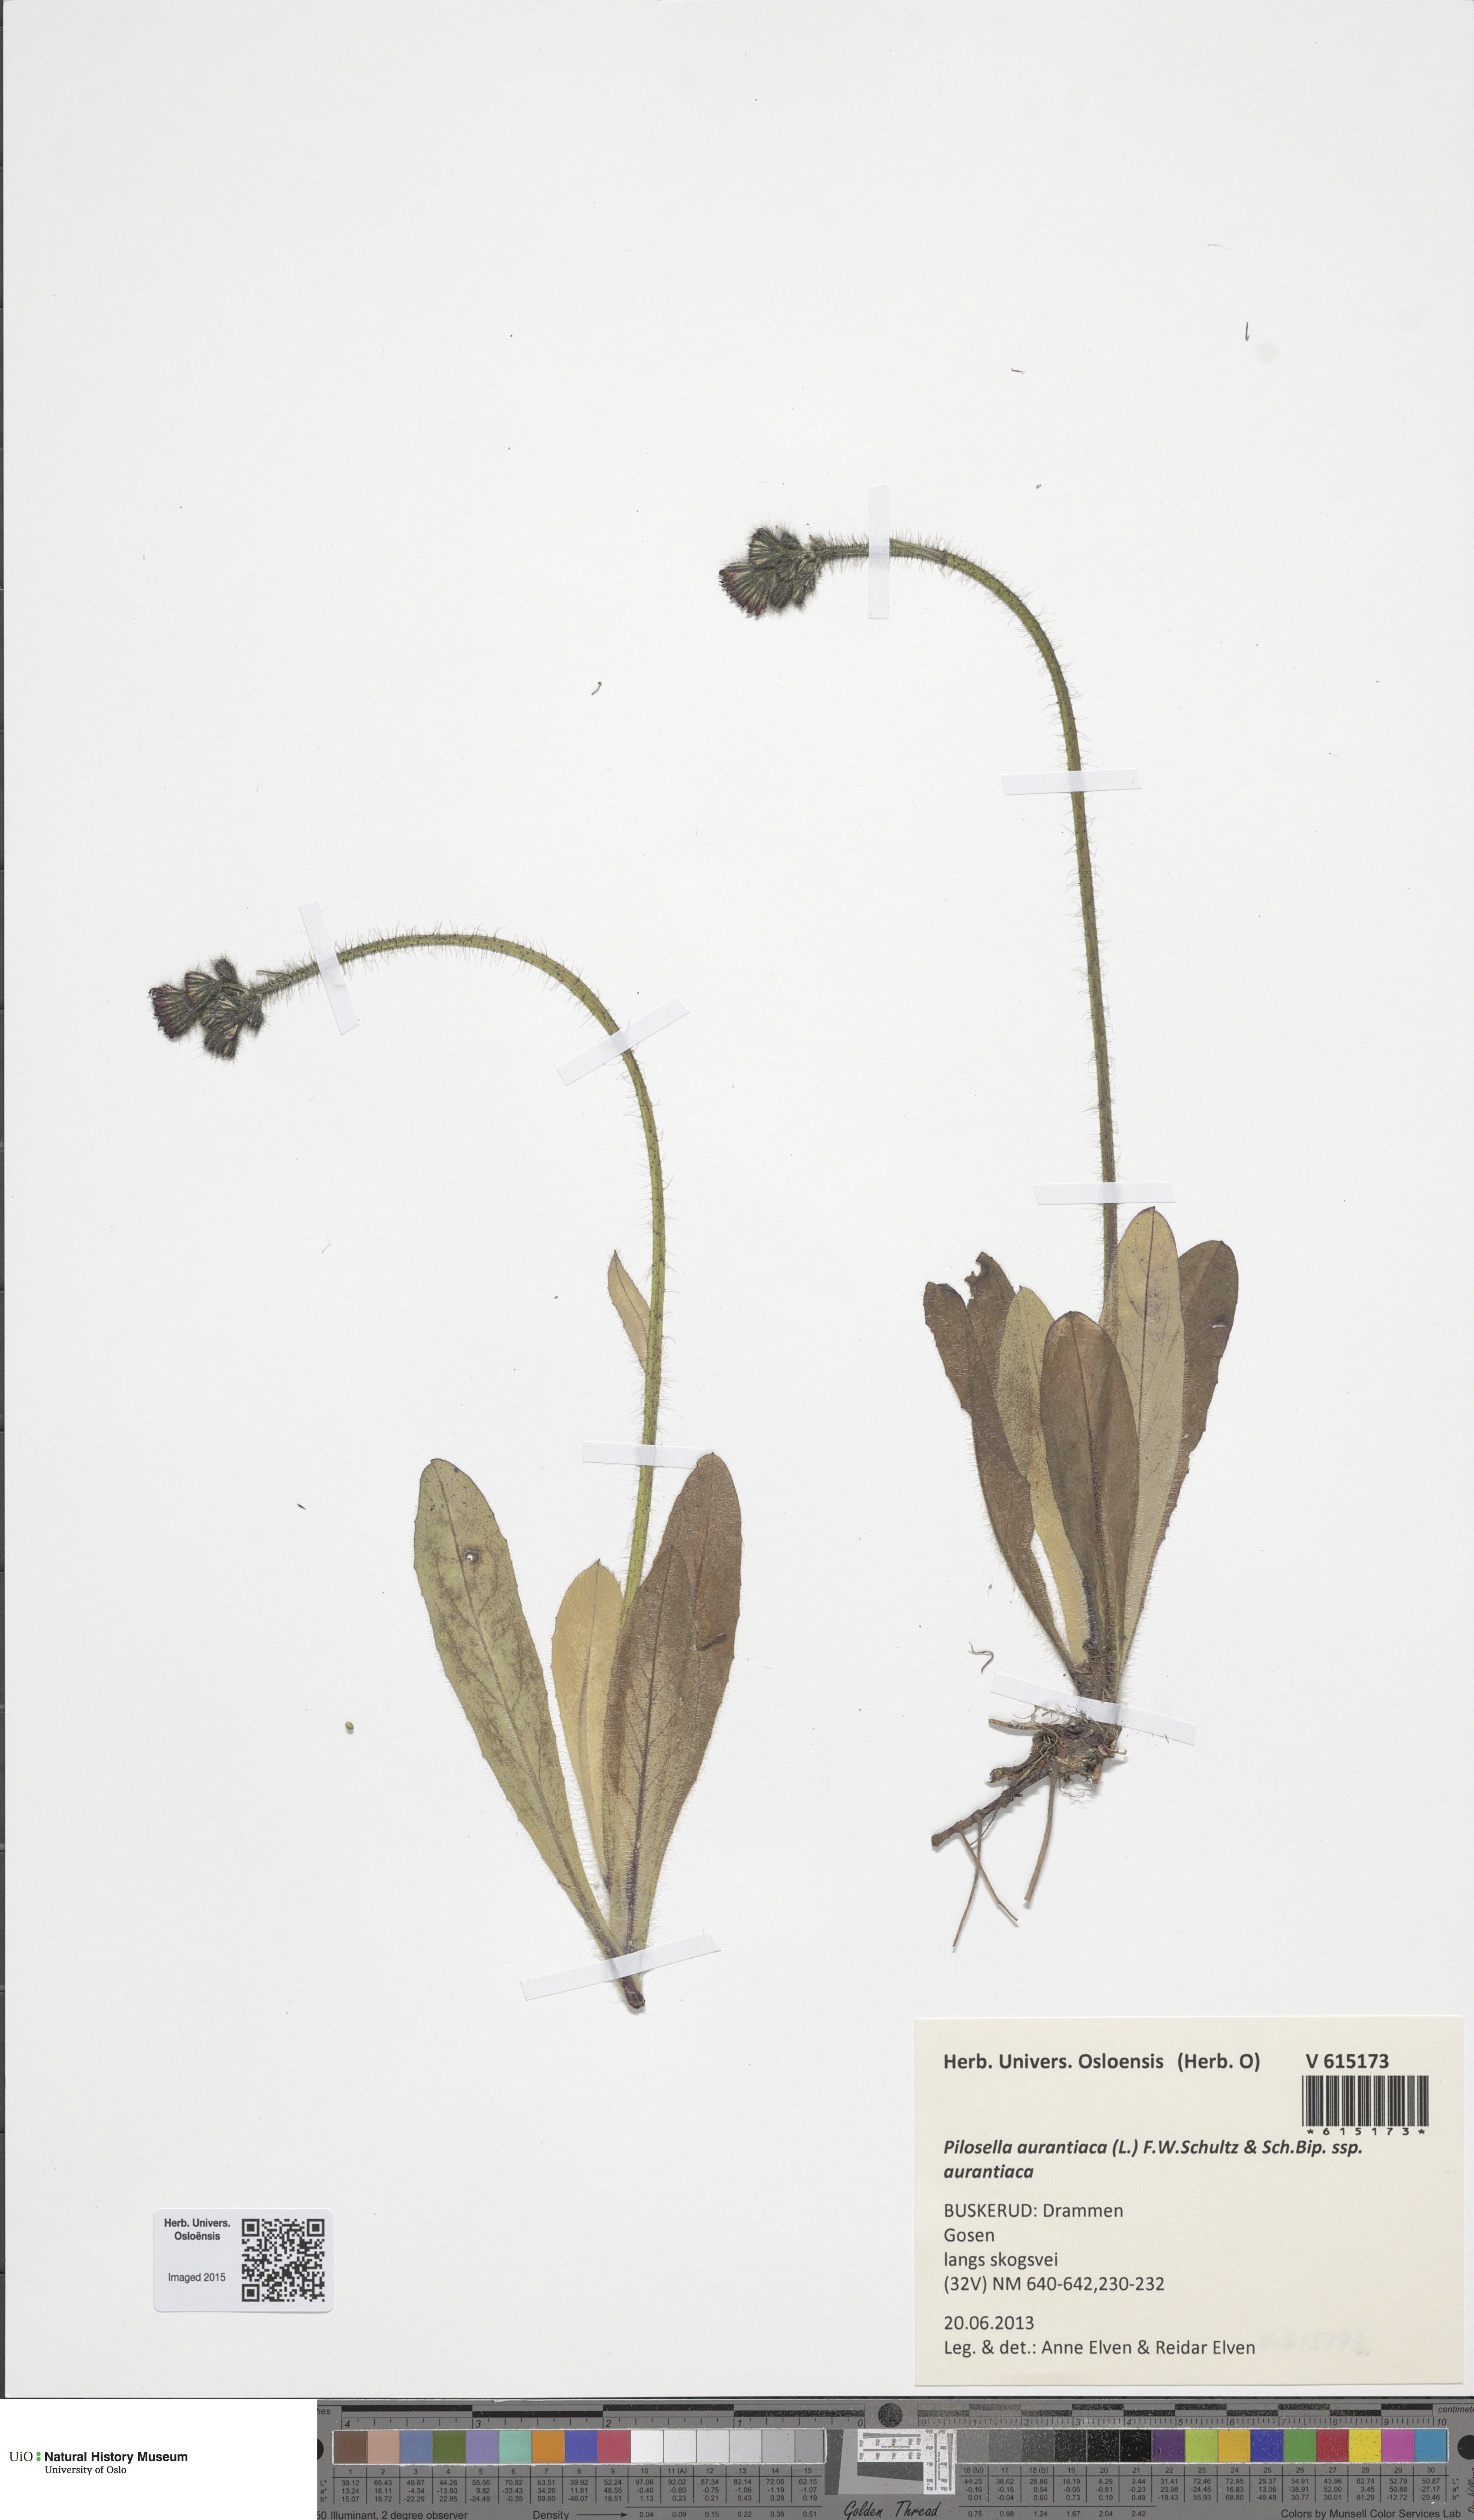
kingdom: Plantae
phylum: Tracheophyta
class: Magnoliopsida
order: Asterales
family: Asteraceae
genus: Pilosella
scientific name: Pilosella aurantiaca
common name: Fox-and-cubs
